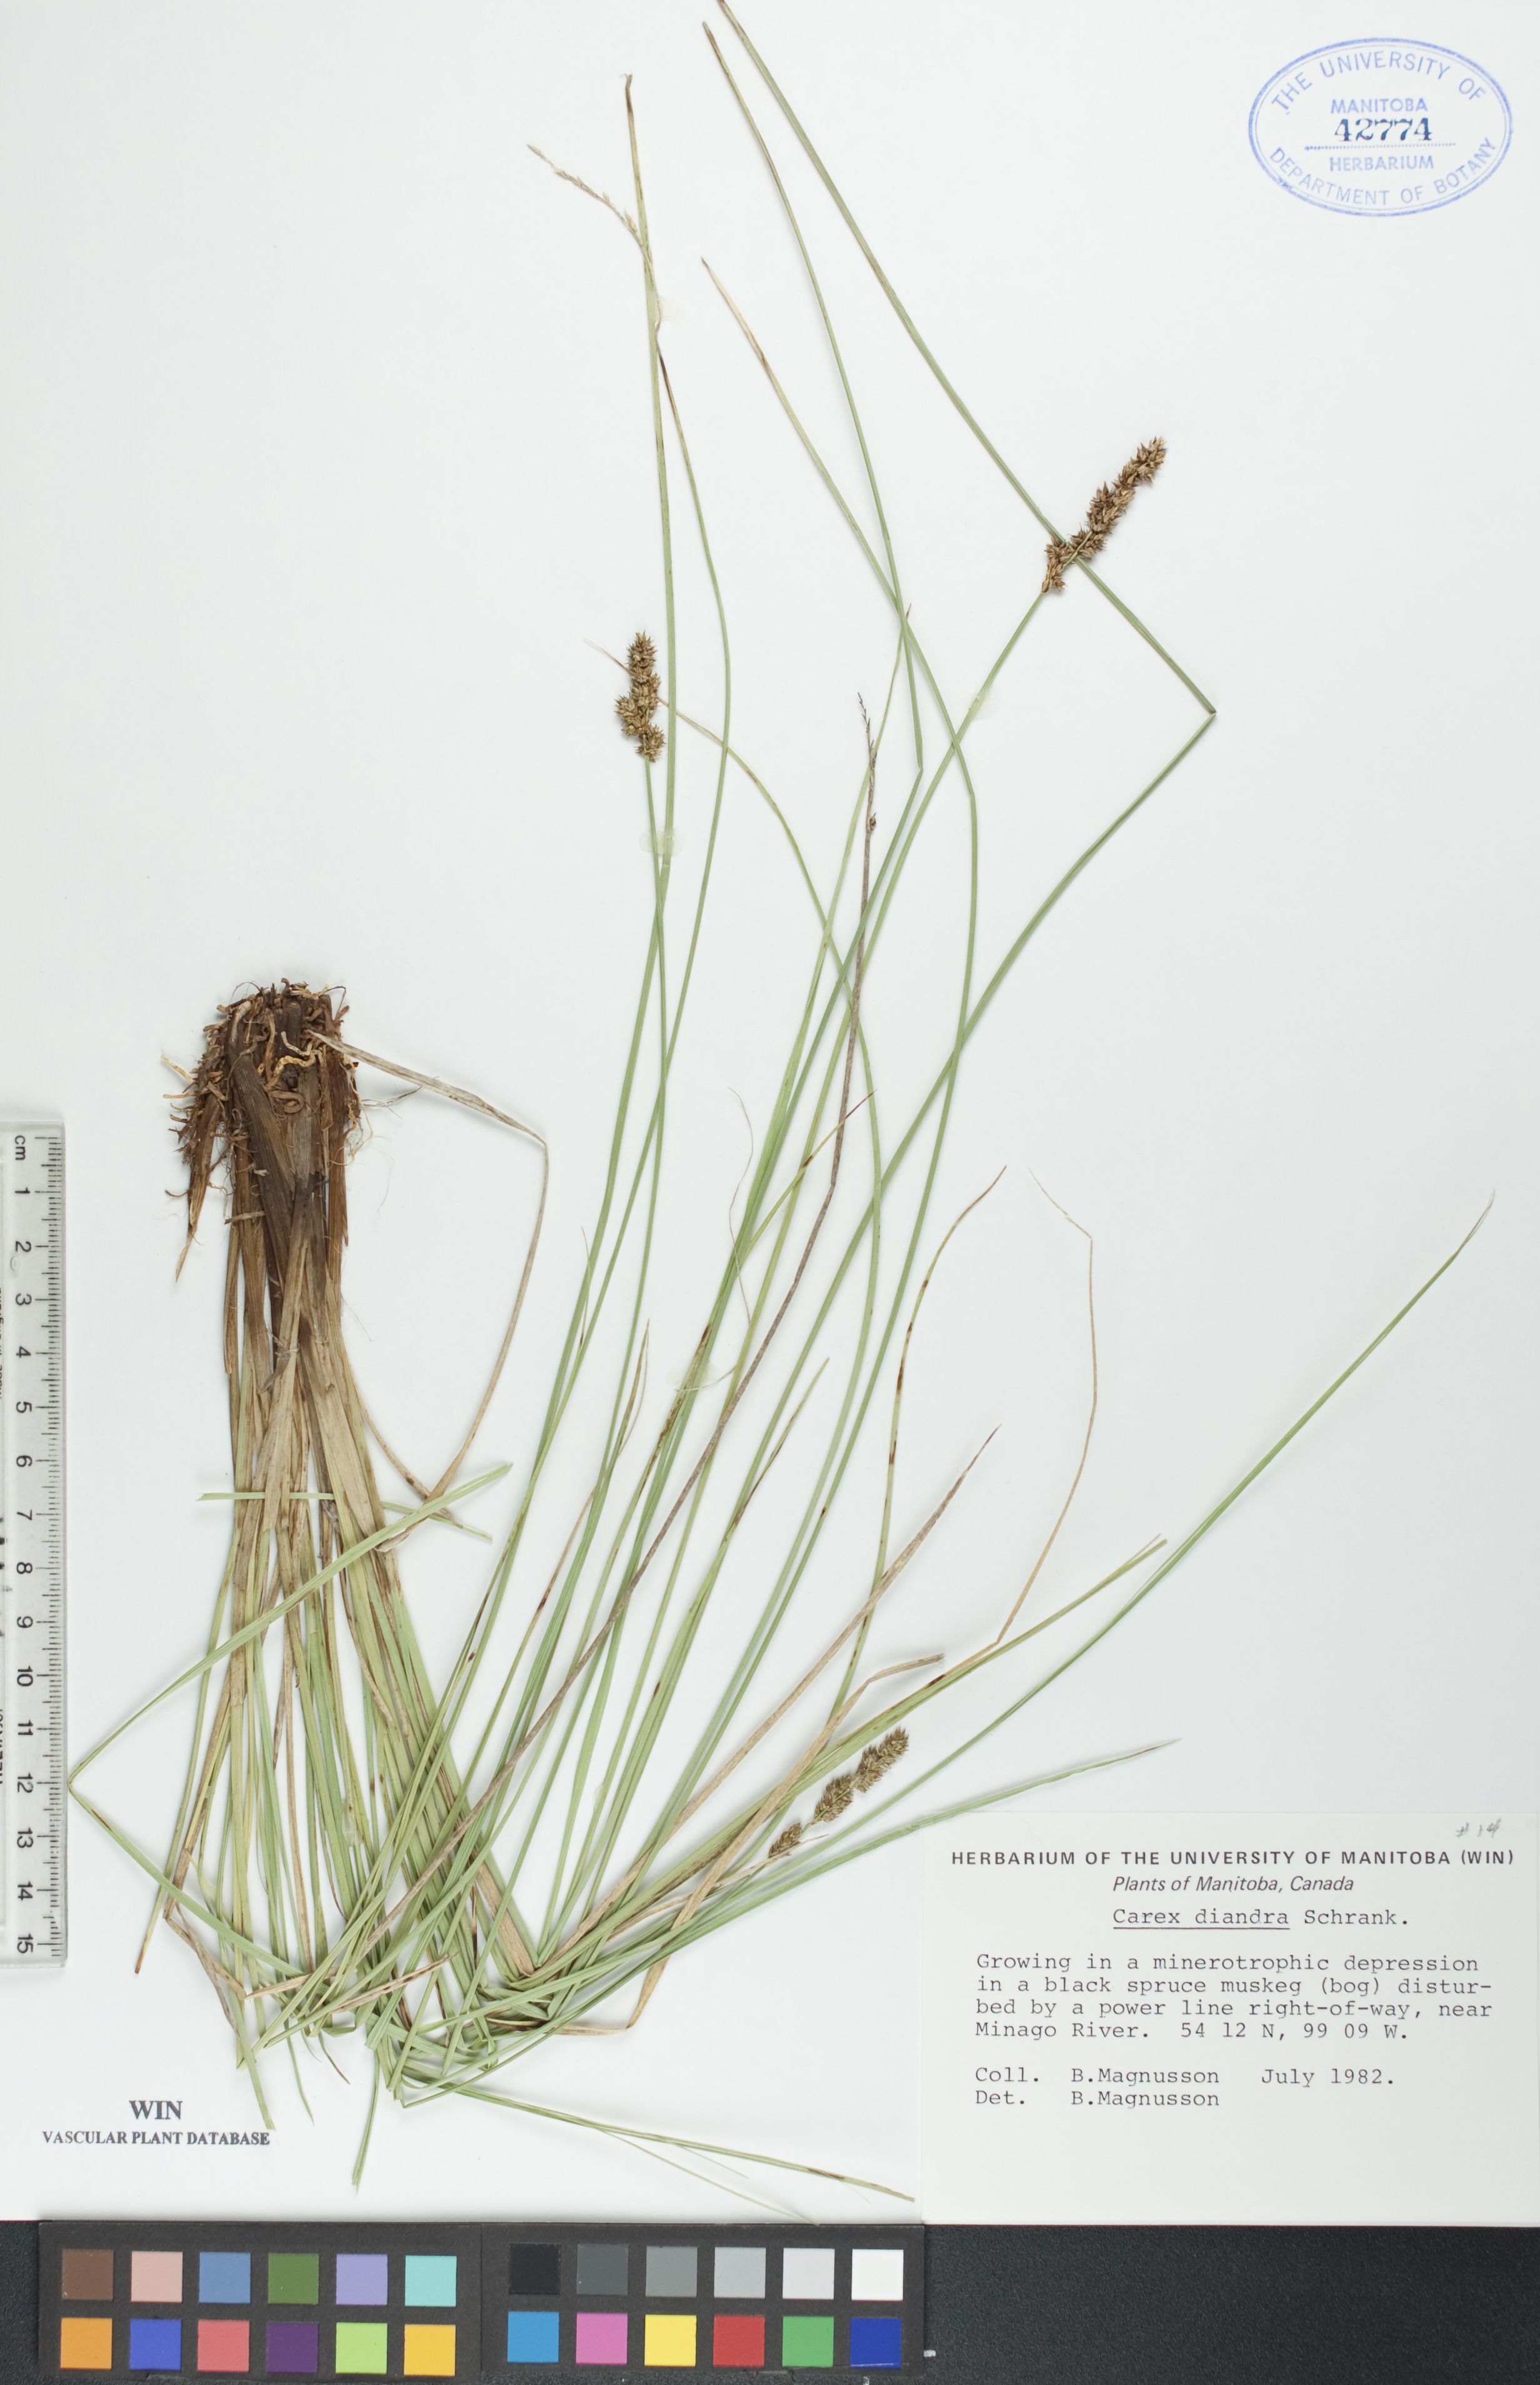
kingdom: Plantae
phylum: Tracheophyta
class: Liliopsida
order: Poales
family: Cyperaceae
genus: Carex
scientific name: Carex diandra
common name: Lesser tussock-sedge
